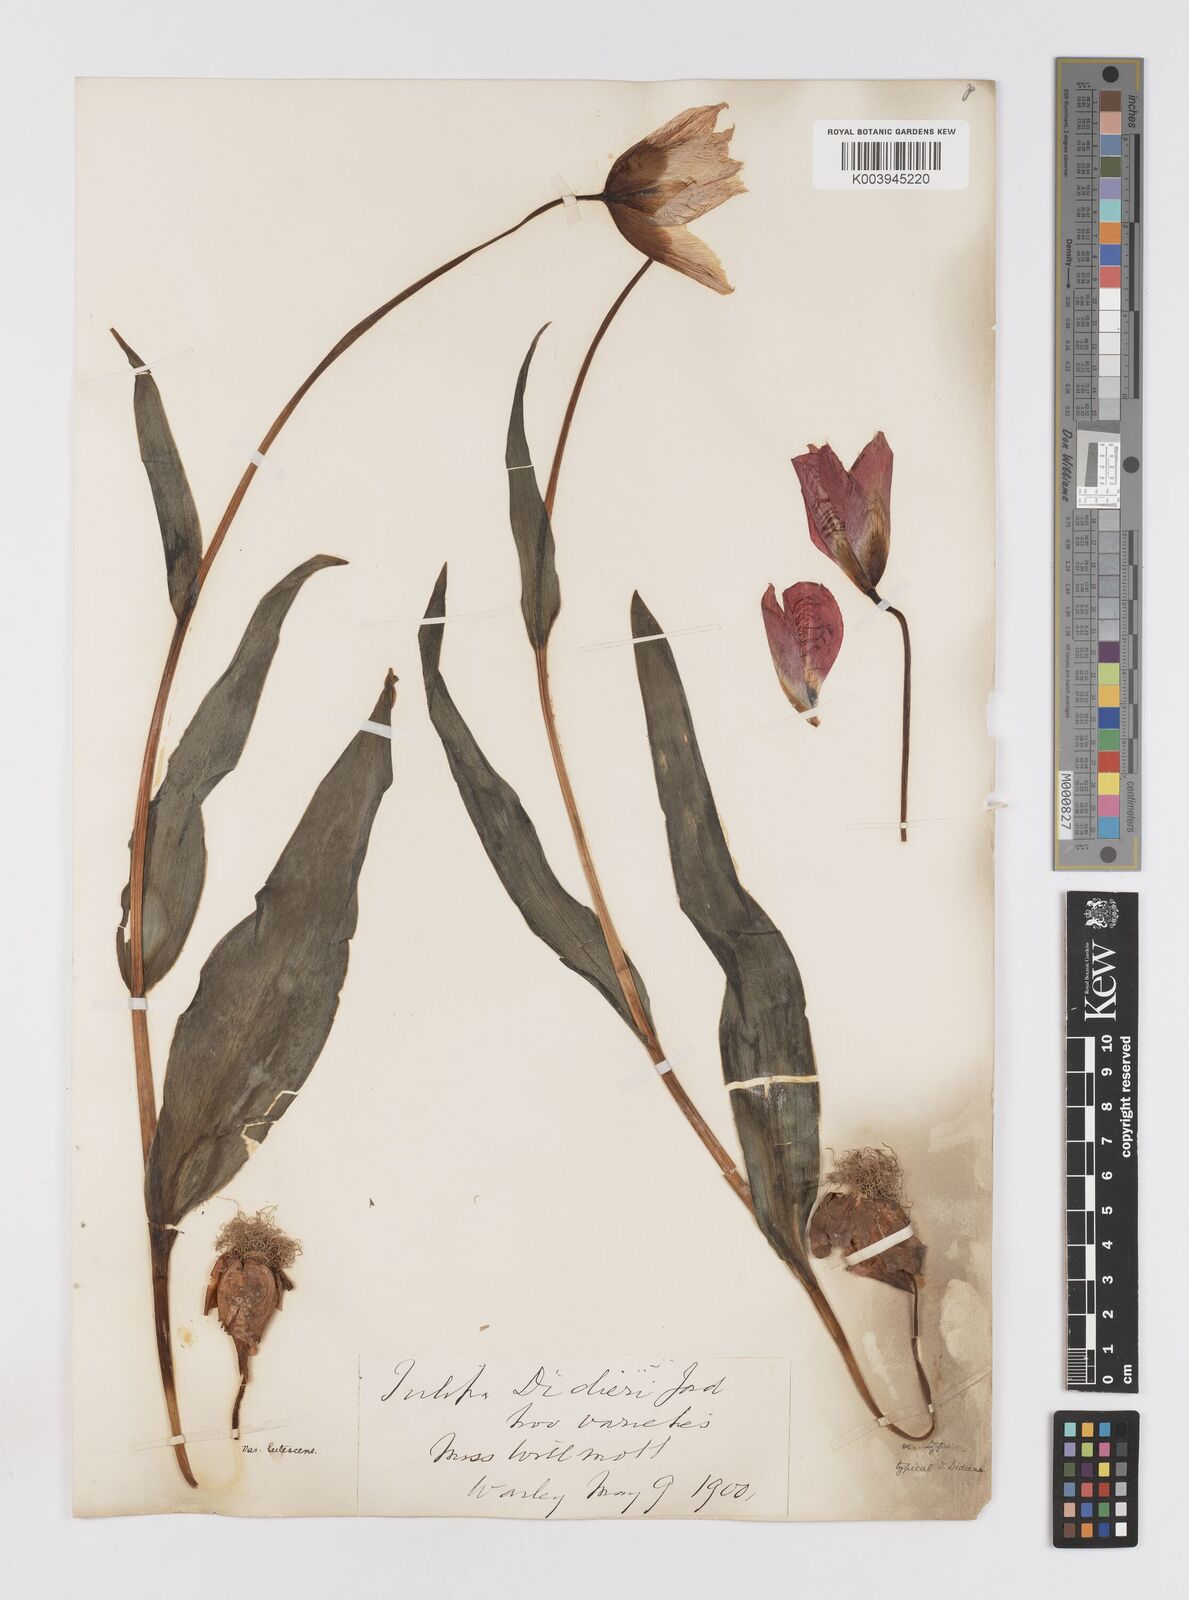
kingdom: Plantae
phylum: Tracheophyta
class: Liliopsida
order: Liliales
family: Liliaceae
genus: Tulipa
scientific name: Tulipa gesneriana
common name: Garden tulip
